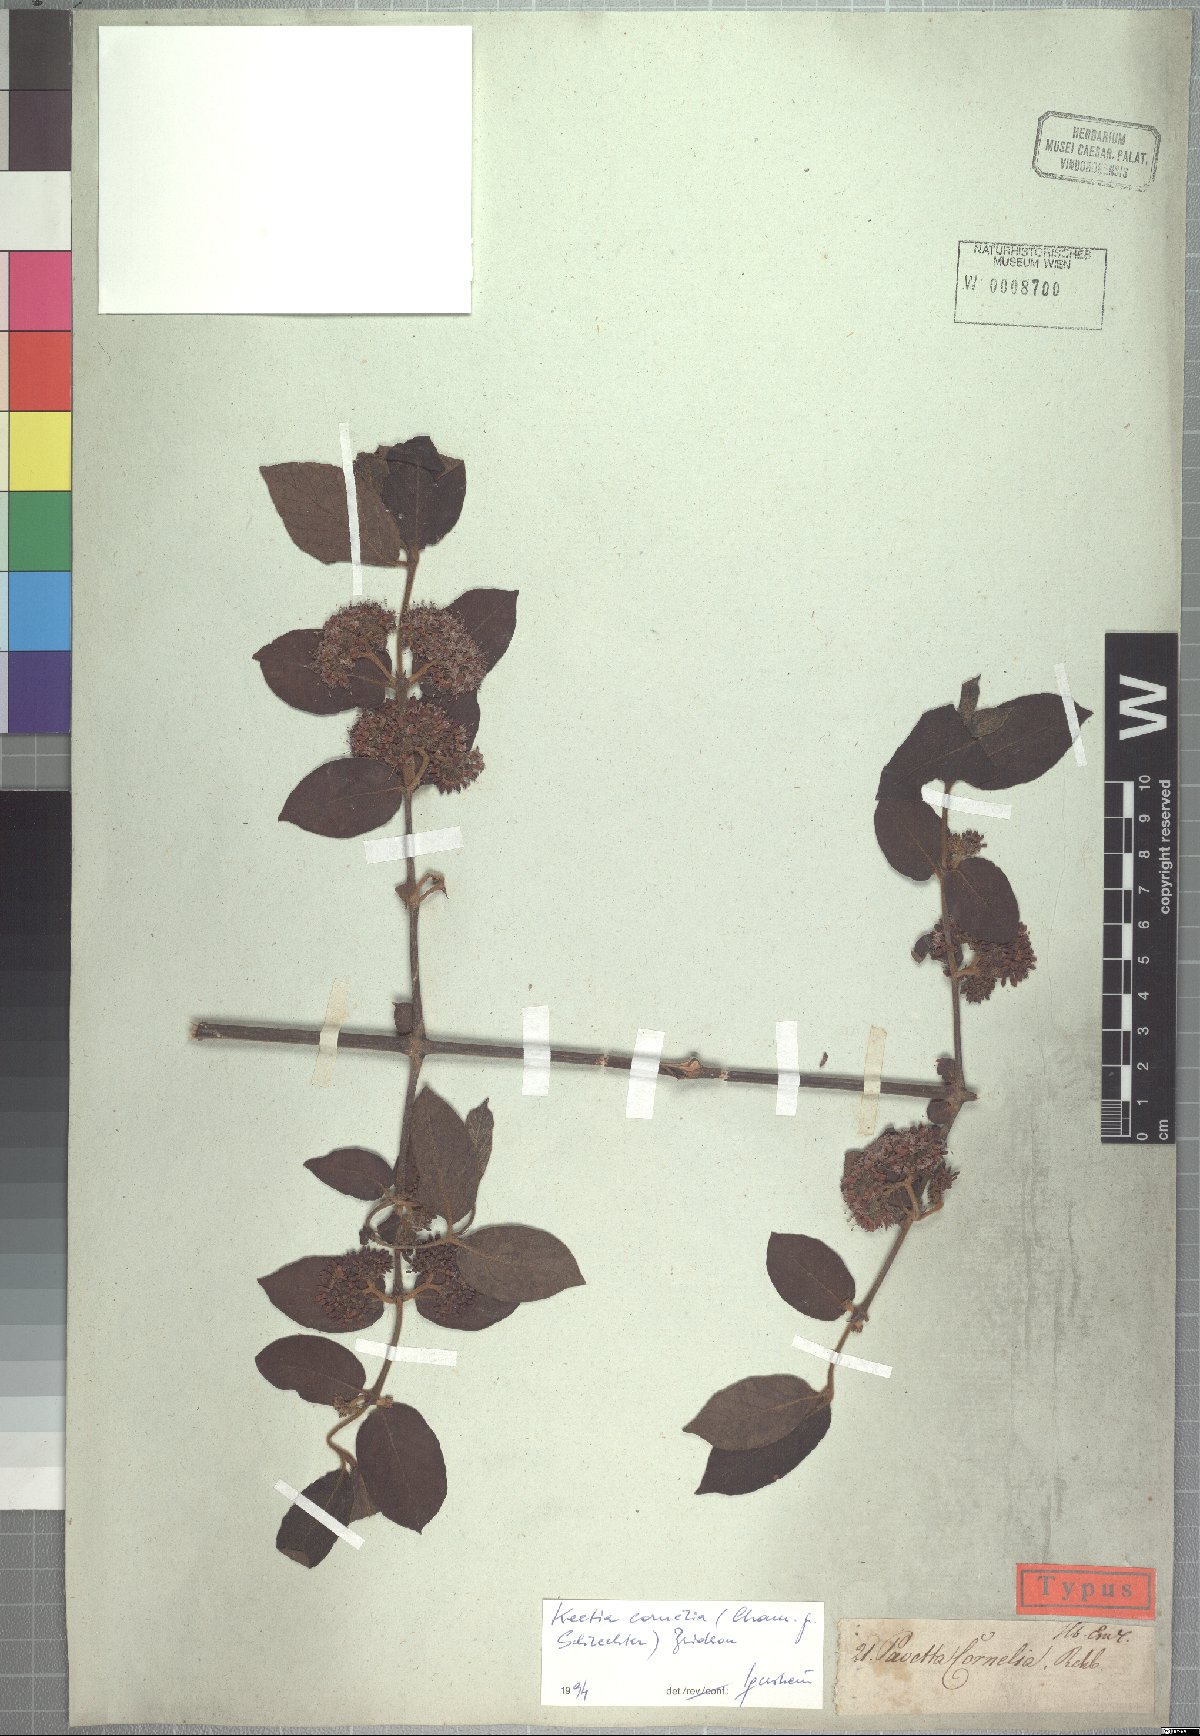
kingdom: Plantae
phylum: Tracheophyta
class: Magnoliopsida
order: Gentianales
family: Rubiaceae
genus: Keetia
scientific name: Keetia cornelia
